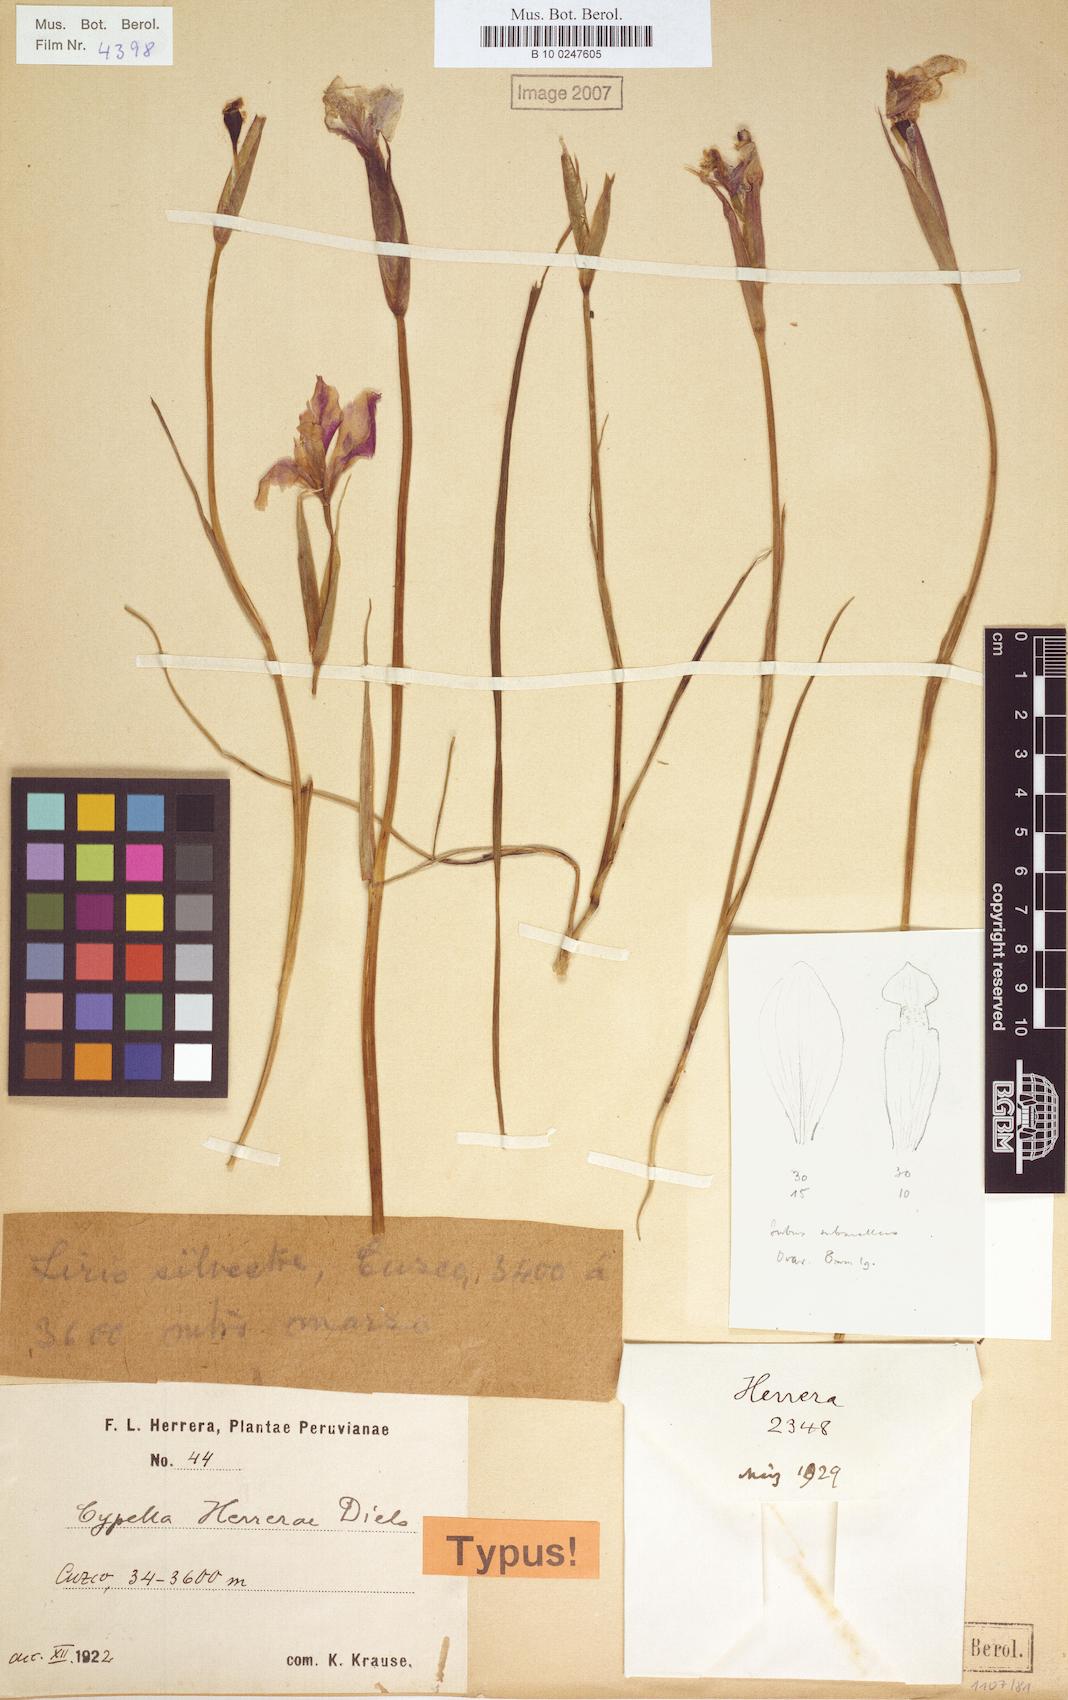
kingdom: Plantae
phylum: Tracheophyta
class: Liliopsida
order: Asparagales
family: Iridaceae
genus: Hesperoxiphion
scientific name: Hesperoxiphion herrerae
